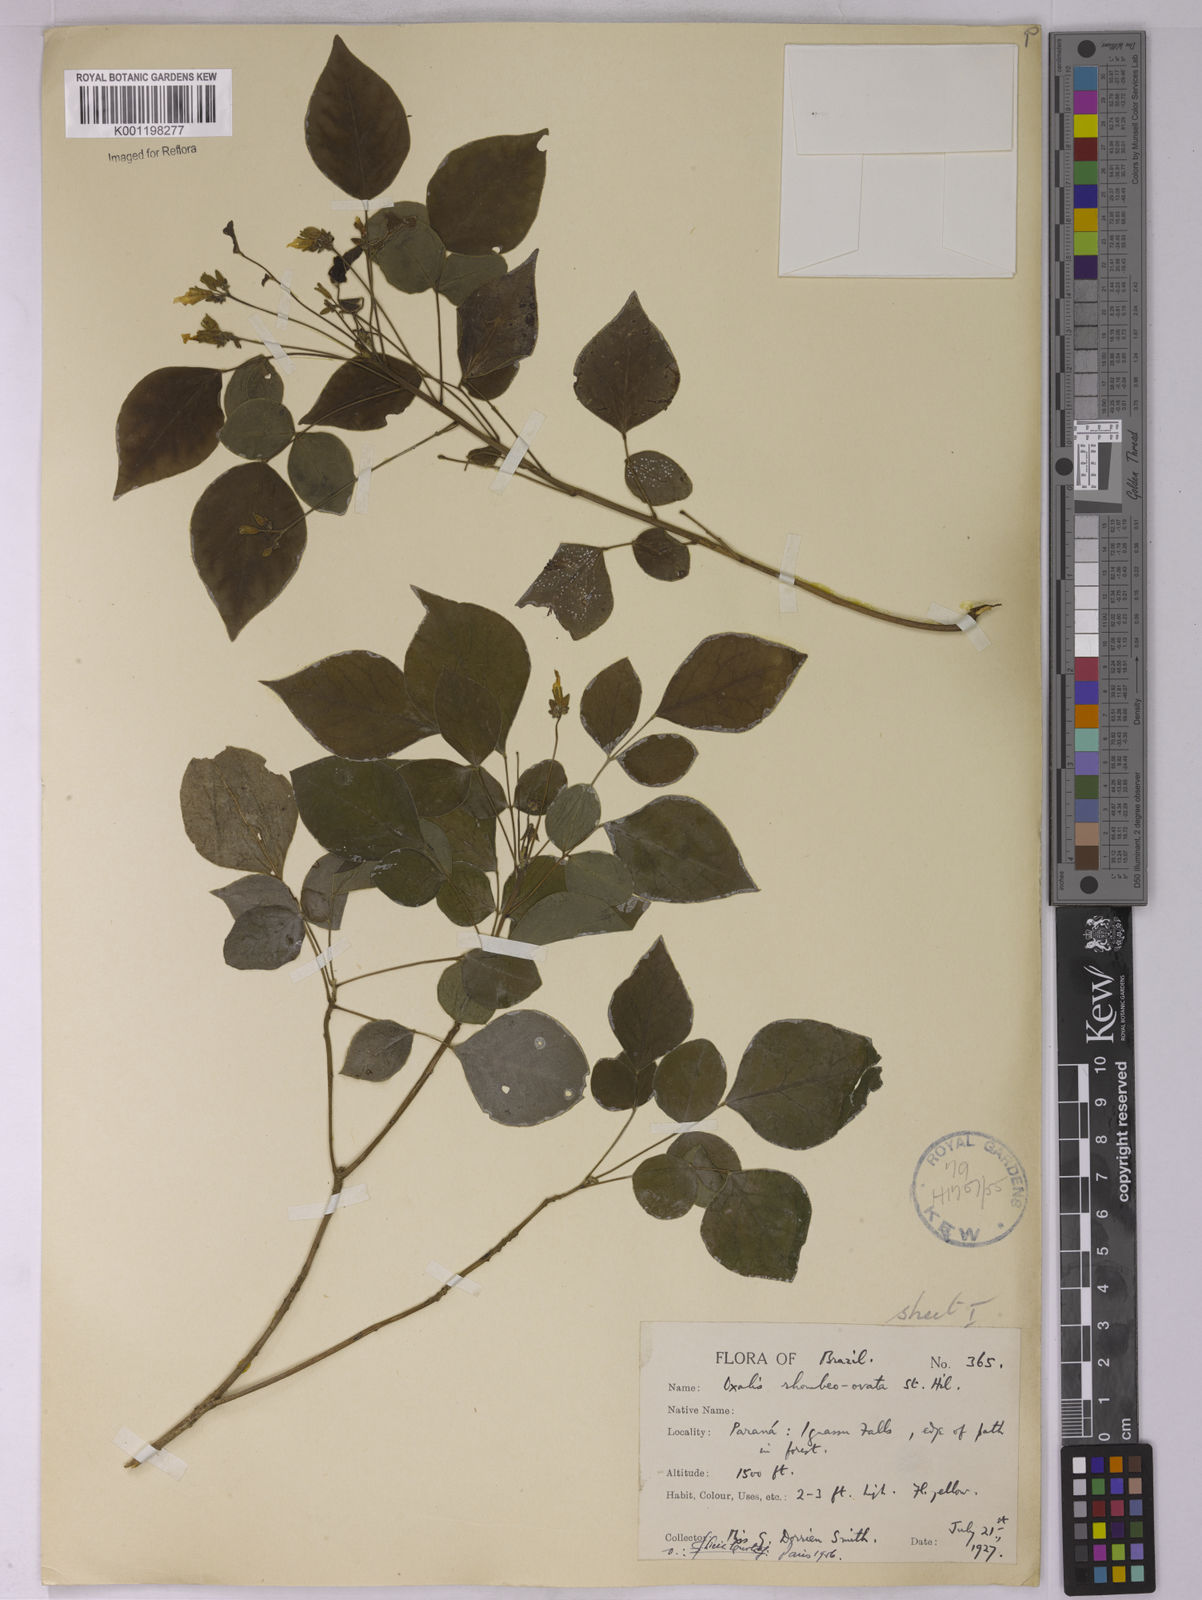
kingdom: Plantae
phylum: Tracheophyta
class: Magnoliopsida
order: Oxalidales
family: Oxalidaceae
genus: Oxalis
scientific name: Oxalis rhombeo-ovata
